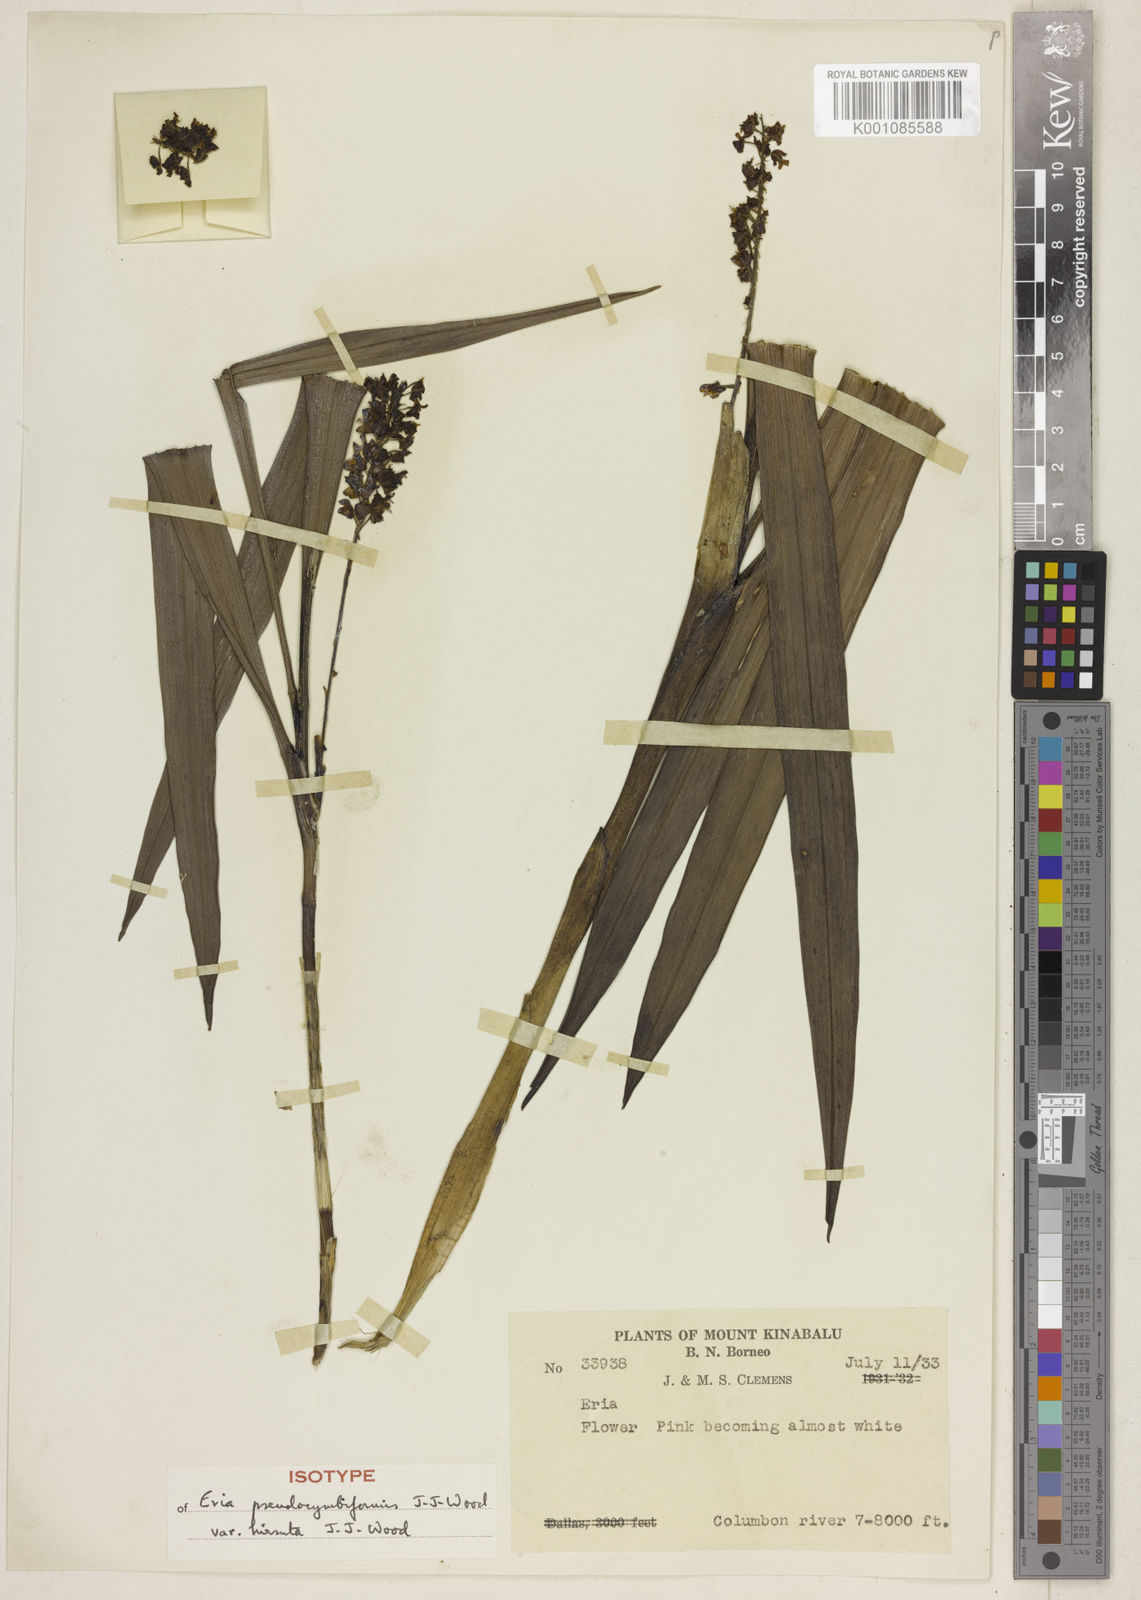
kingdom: Plantae
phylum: Tracheophyta
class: Liliopsida
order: Asparagales
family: Orchidaceae
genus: Cymboglossum
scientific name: Cymboglossum pseudocymbiforme
